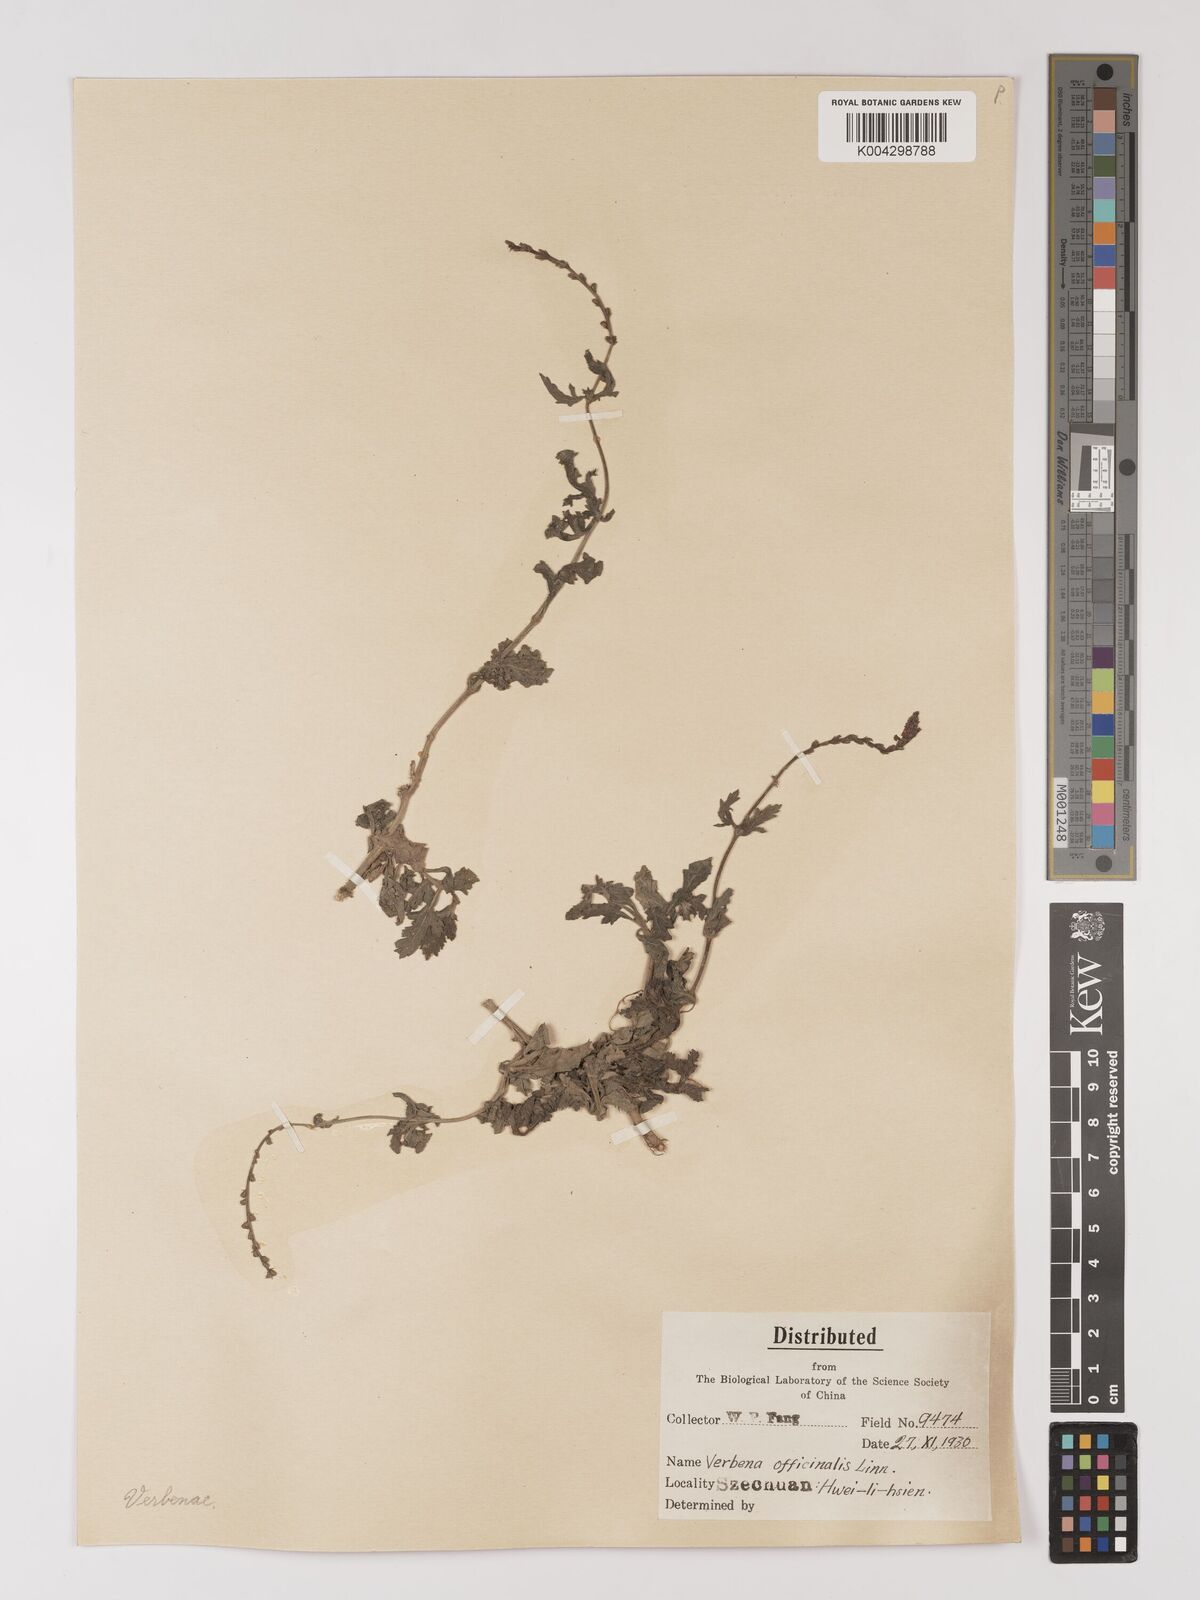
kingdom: Plantae
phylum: Tracheophyta
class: Magnoliopsida
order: Lamiales
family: Verbenaceae
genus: Verbena
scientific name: Verbena officinalis
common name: Vervain
